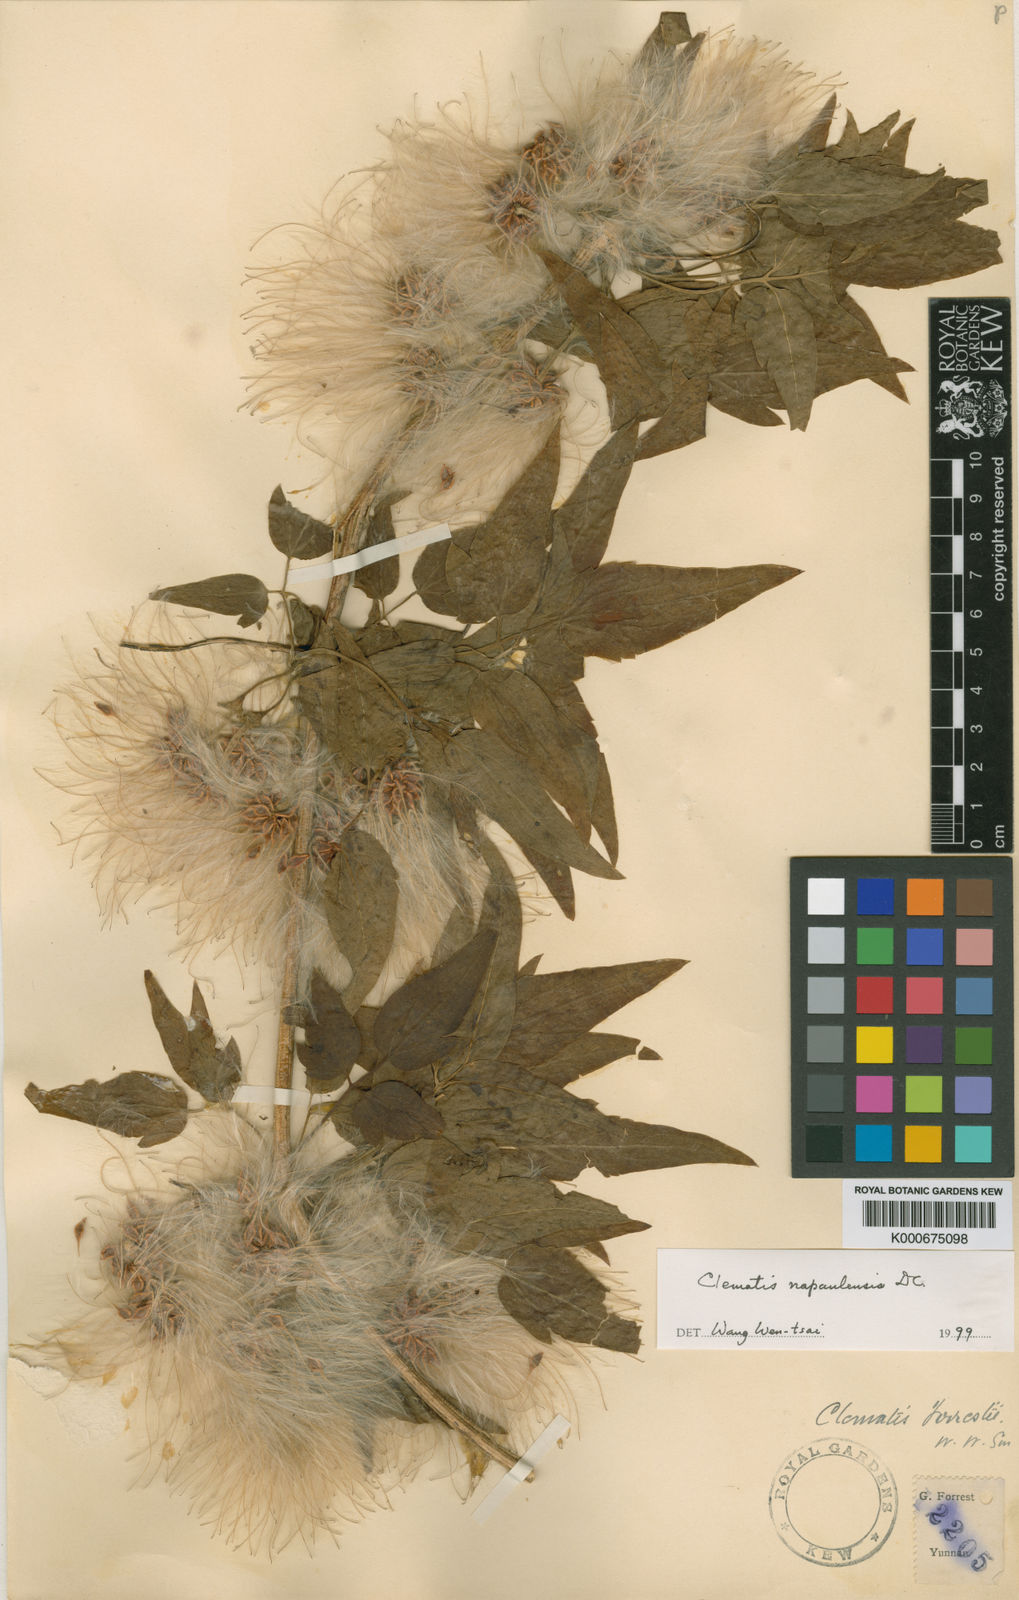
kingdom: Plantae
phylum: Tracheophyta
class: Magnoliopsida
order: Ranunculales
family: Ranunculaceae
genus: Clematis
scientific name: Clematis napaulensis
